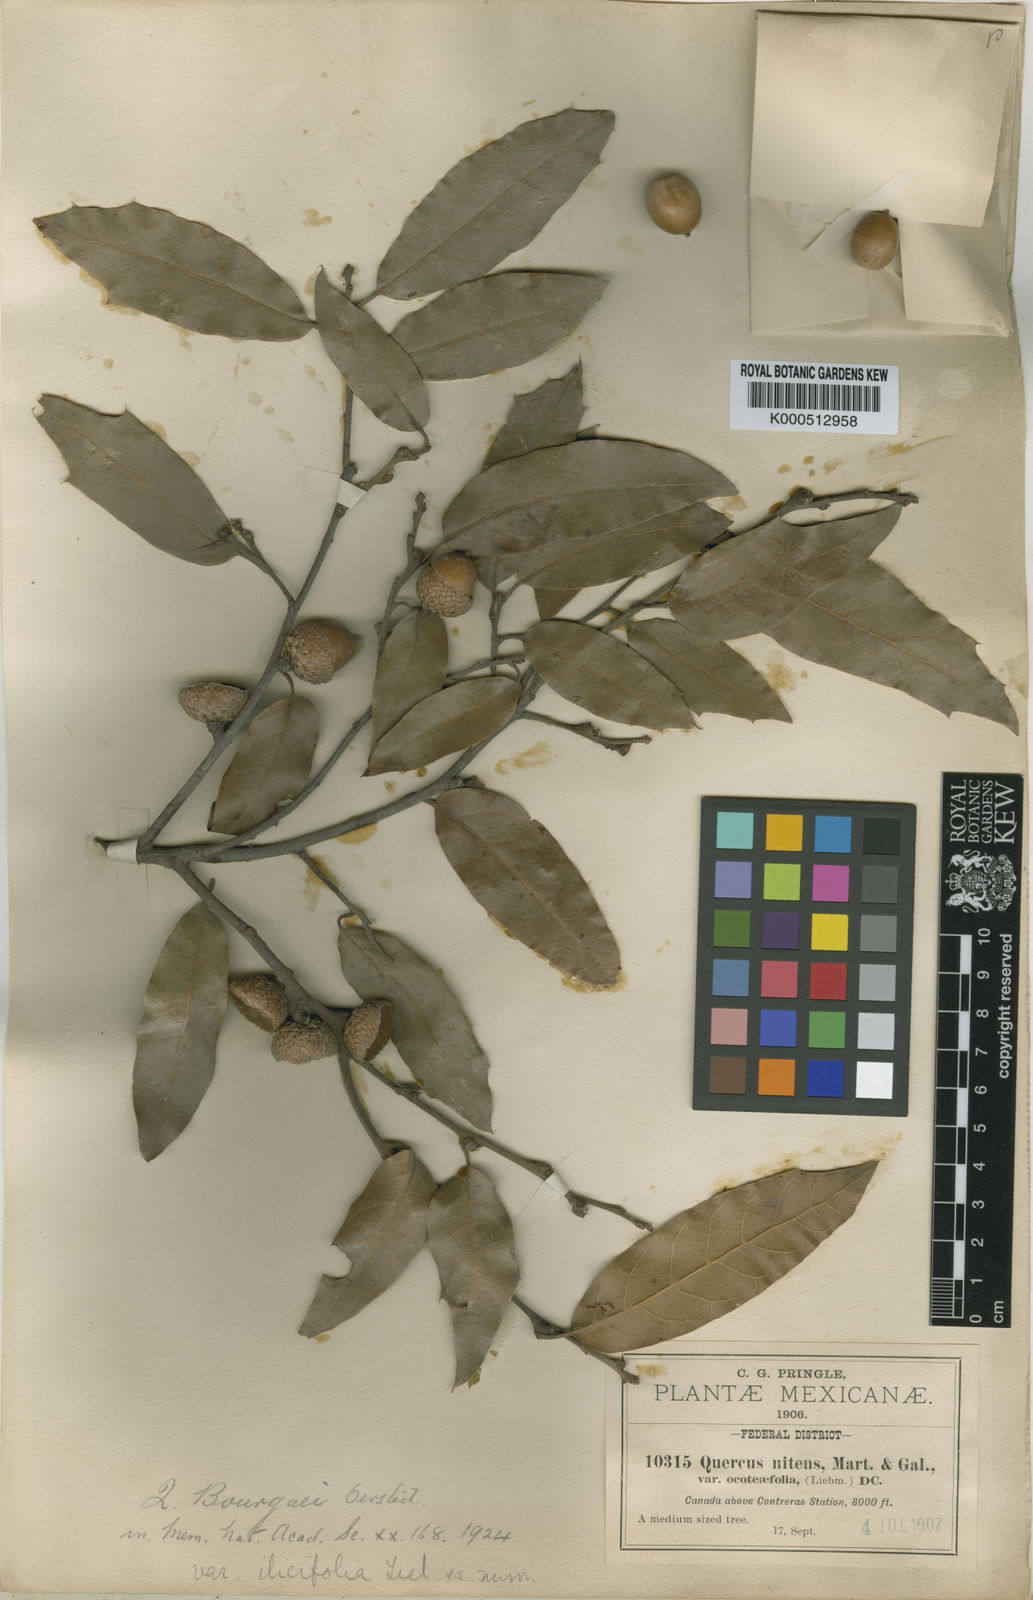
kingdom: Plantae
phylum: Tracheophyta
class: Magnoliopsida
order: Fagales
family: Fagaceae
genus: Quercus
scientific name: Quercus laurina
